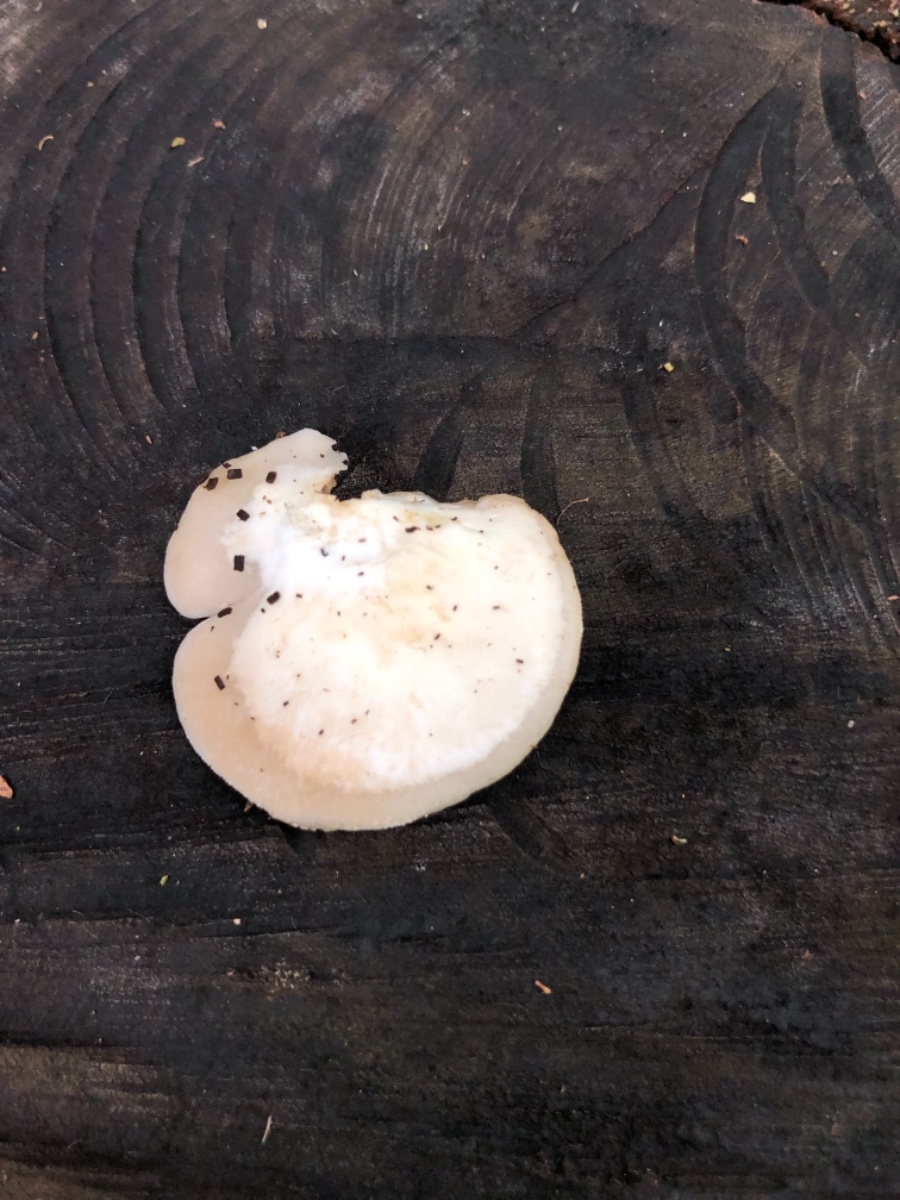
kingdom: Fungi
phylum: Basidiomycota
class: Agaricomycetes
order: Agaricales
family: Crepidotaceae
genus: Crepidotus
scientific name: Crepidotus mollis
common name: blød muslingesvamp
